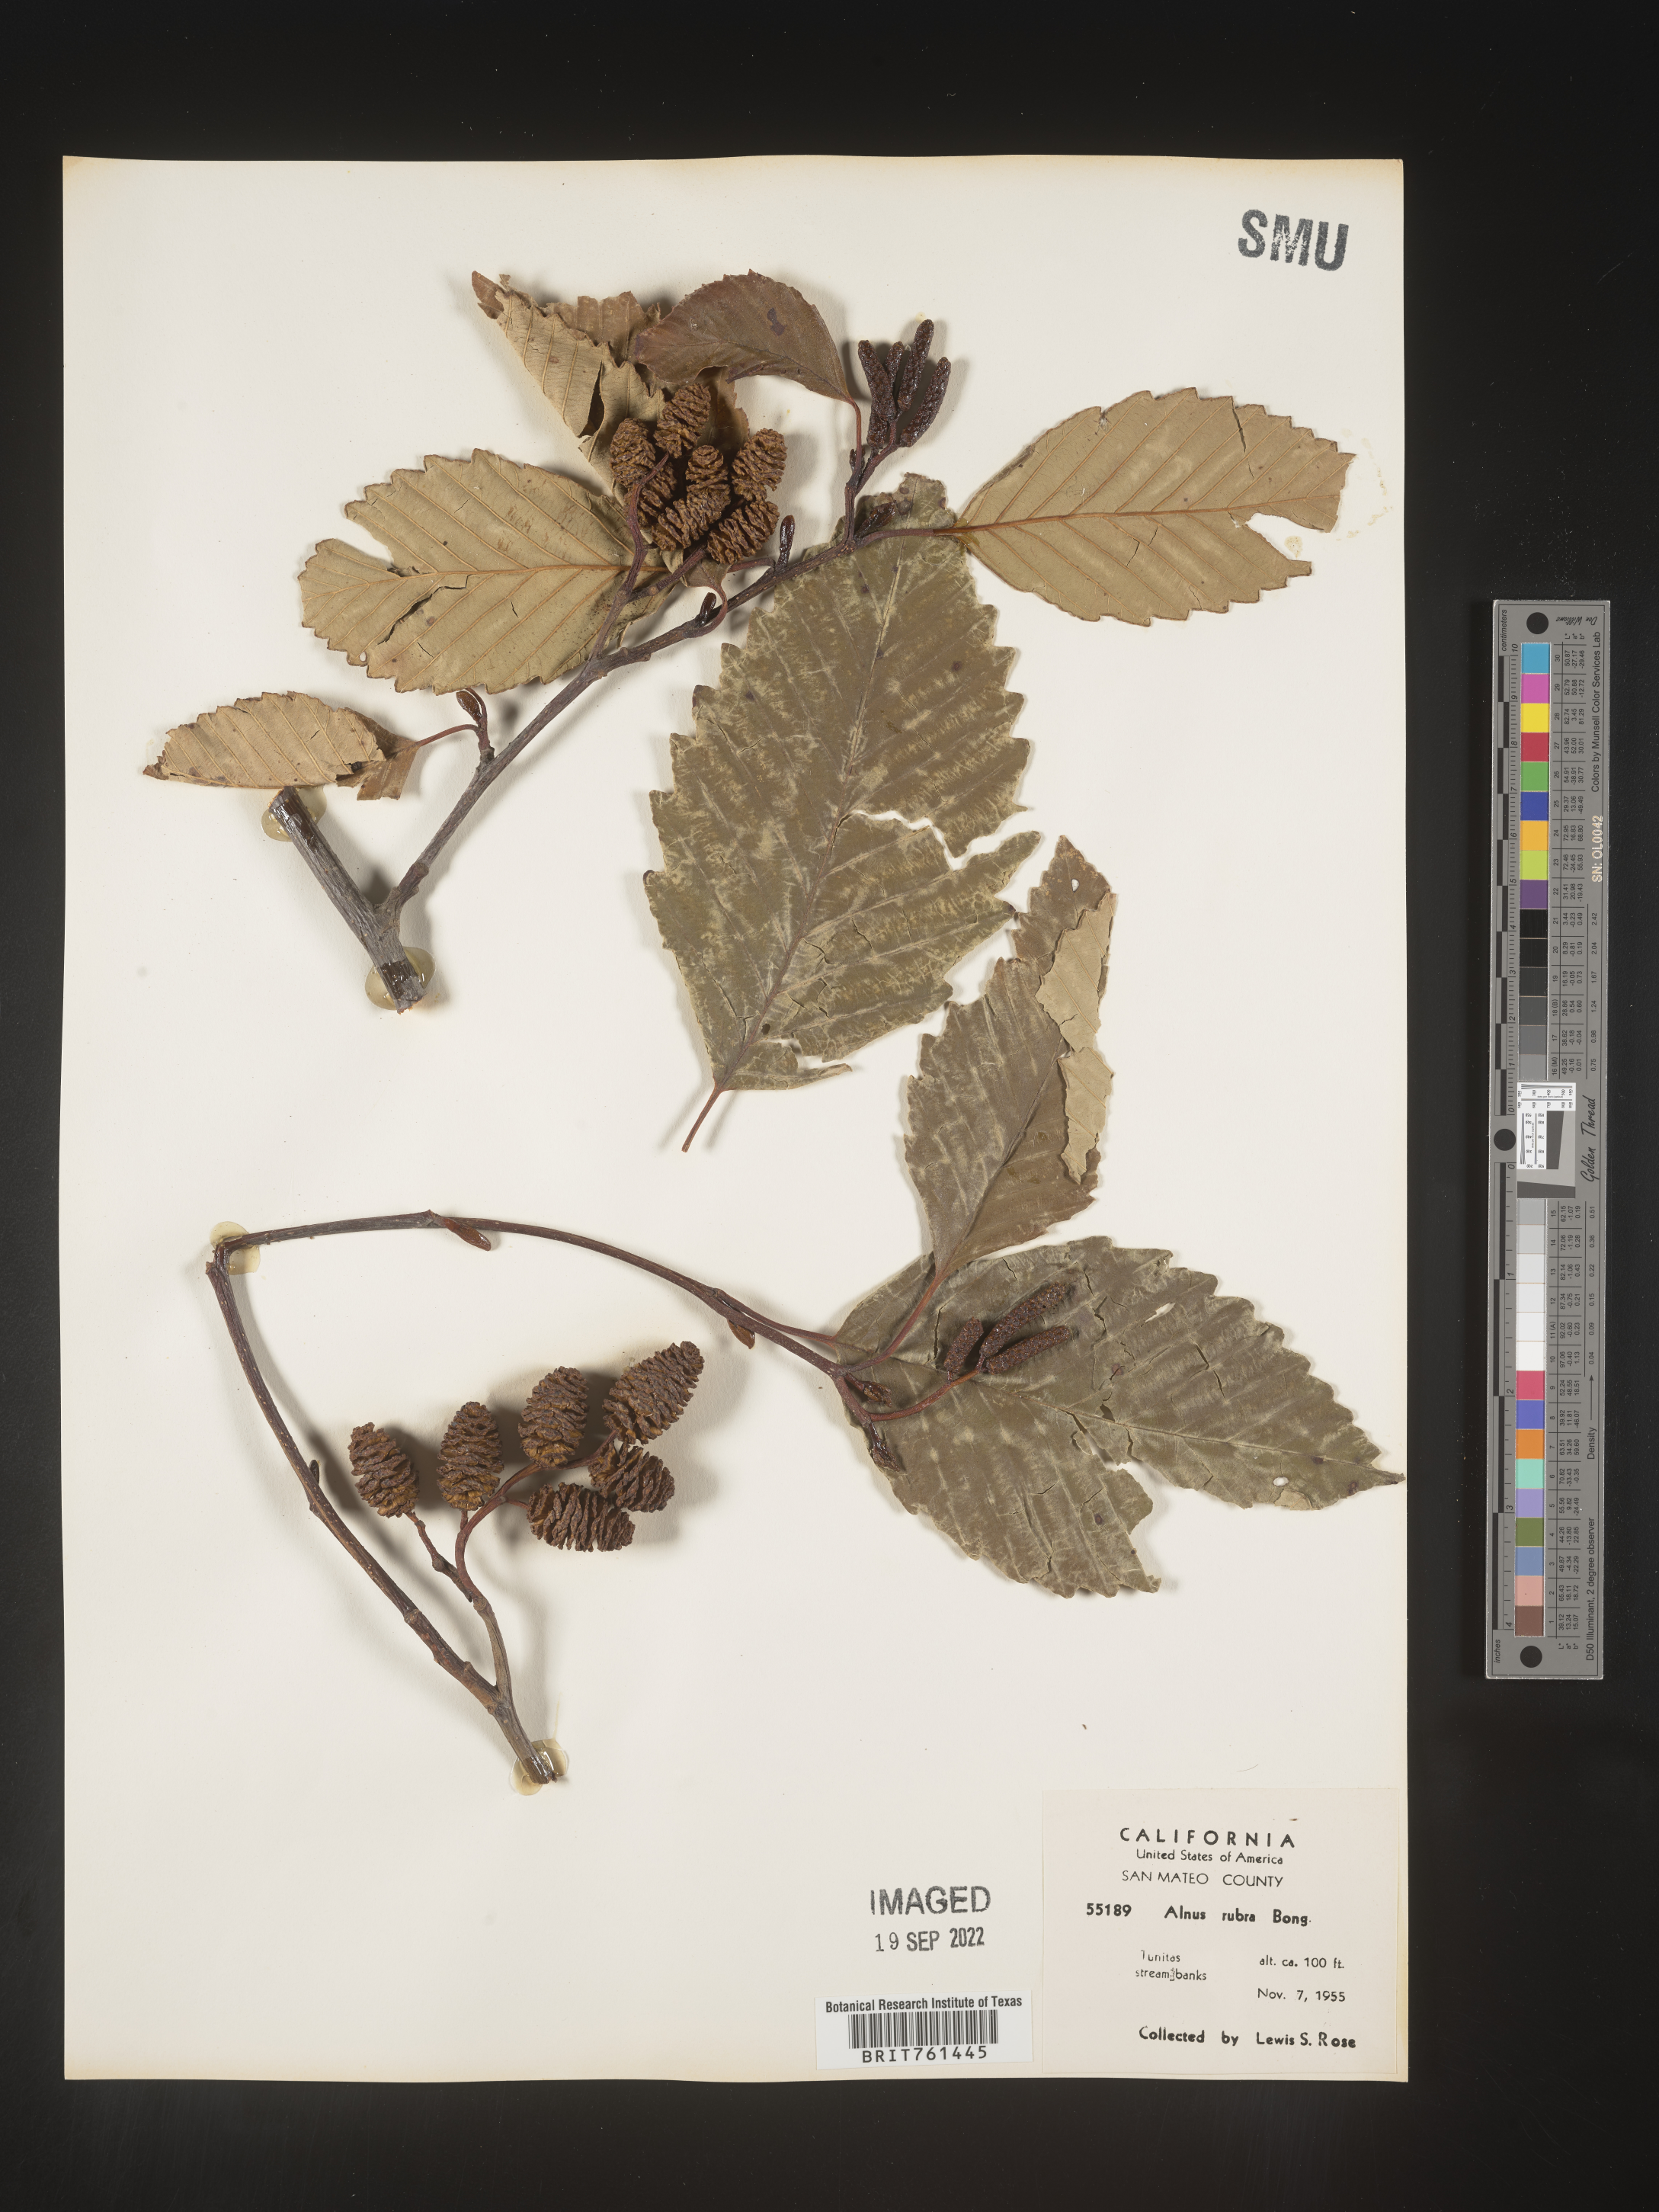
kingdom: Plantae
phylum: Tracheophyta
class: Magnoliopsida
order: Fagales
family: Betulaceae
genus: Alnus
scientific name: Alnus rubra
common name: Red alder
